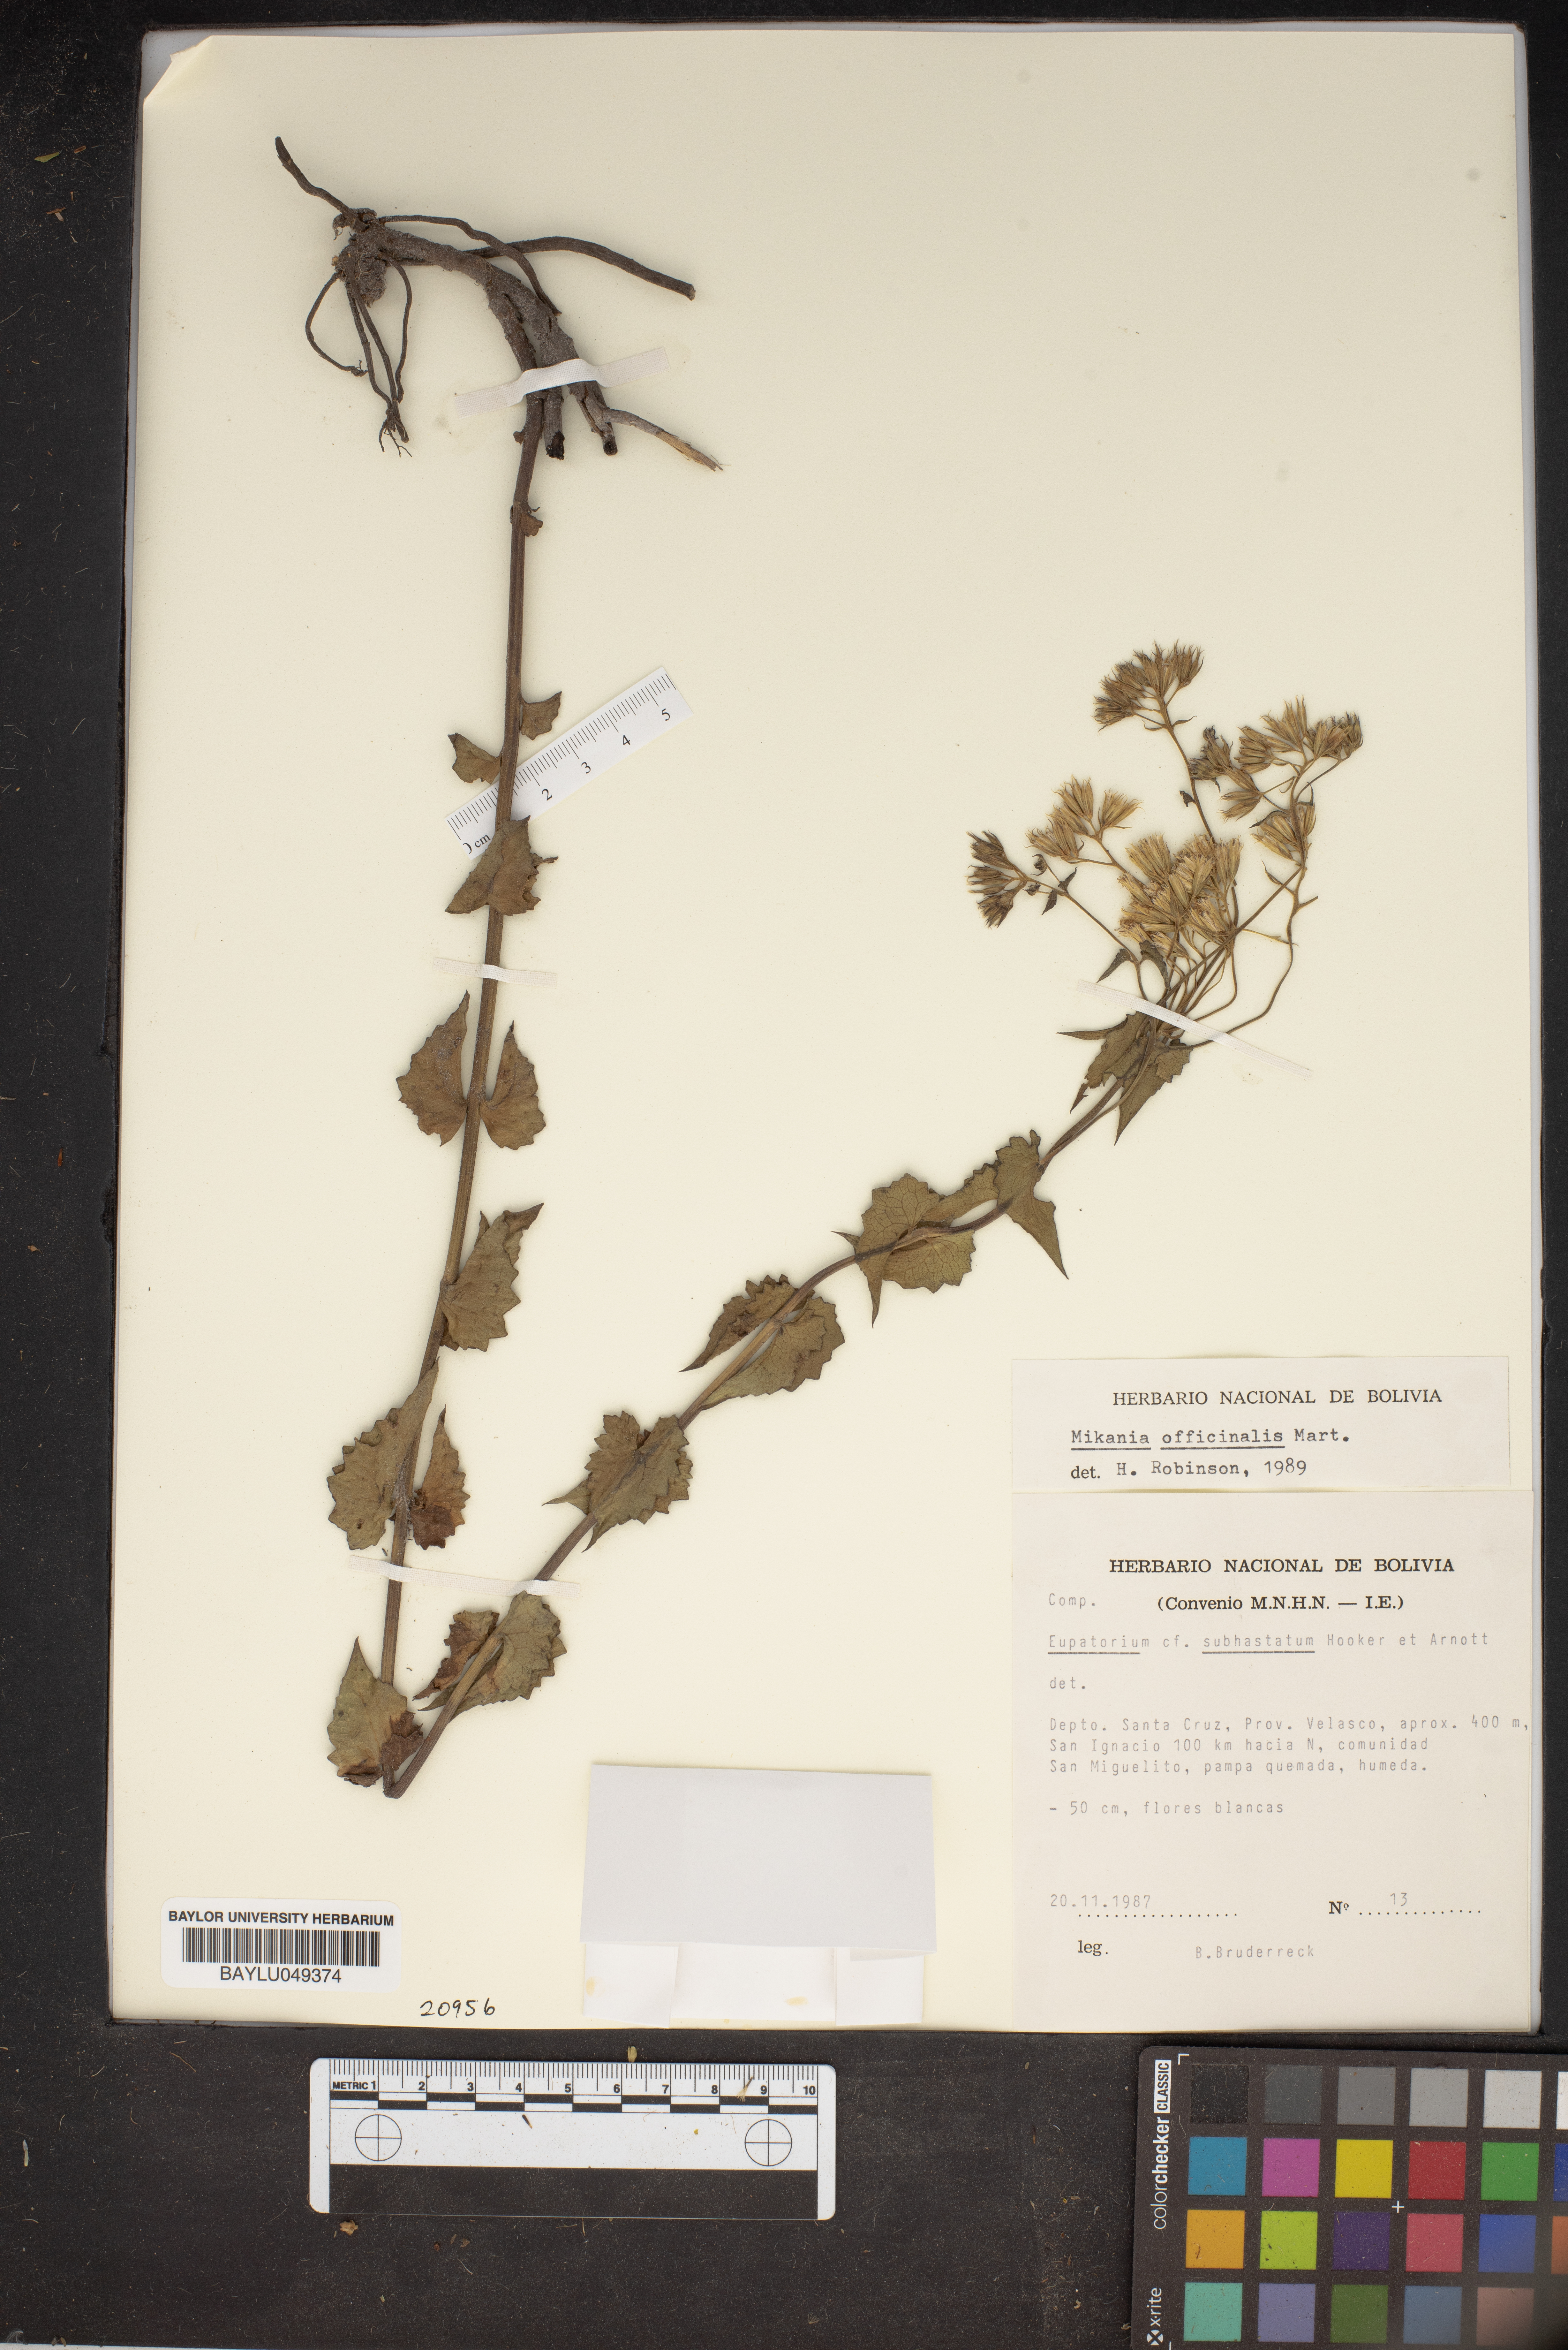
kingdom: Plantae
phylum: Tracheophyta
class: Magnoliopsida
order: Asterales
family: Asteraceae
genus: Mikania
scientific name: Mikania officinalis
